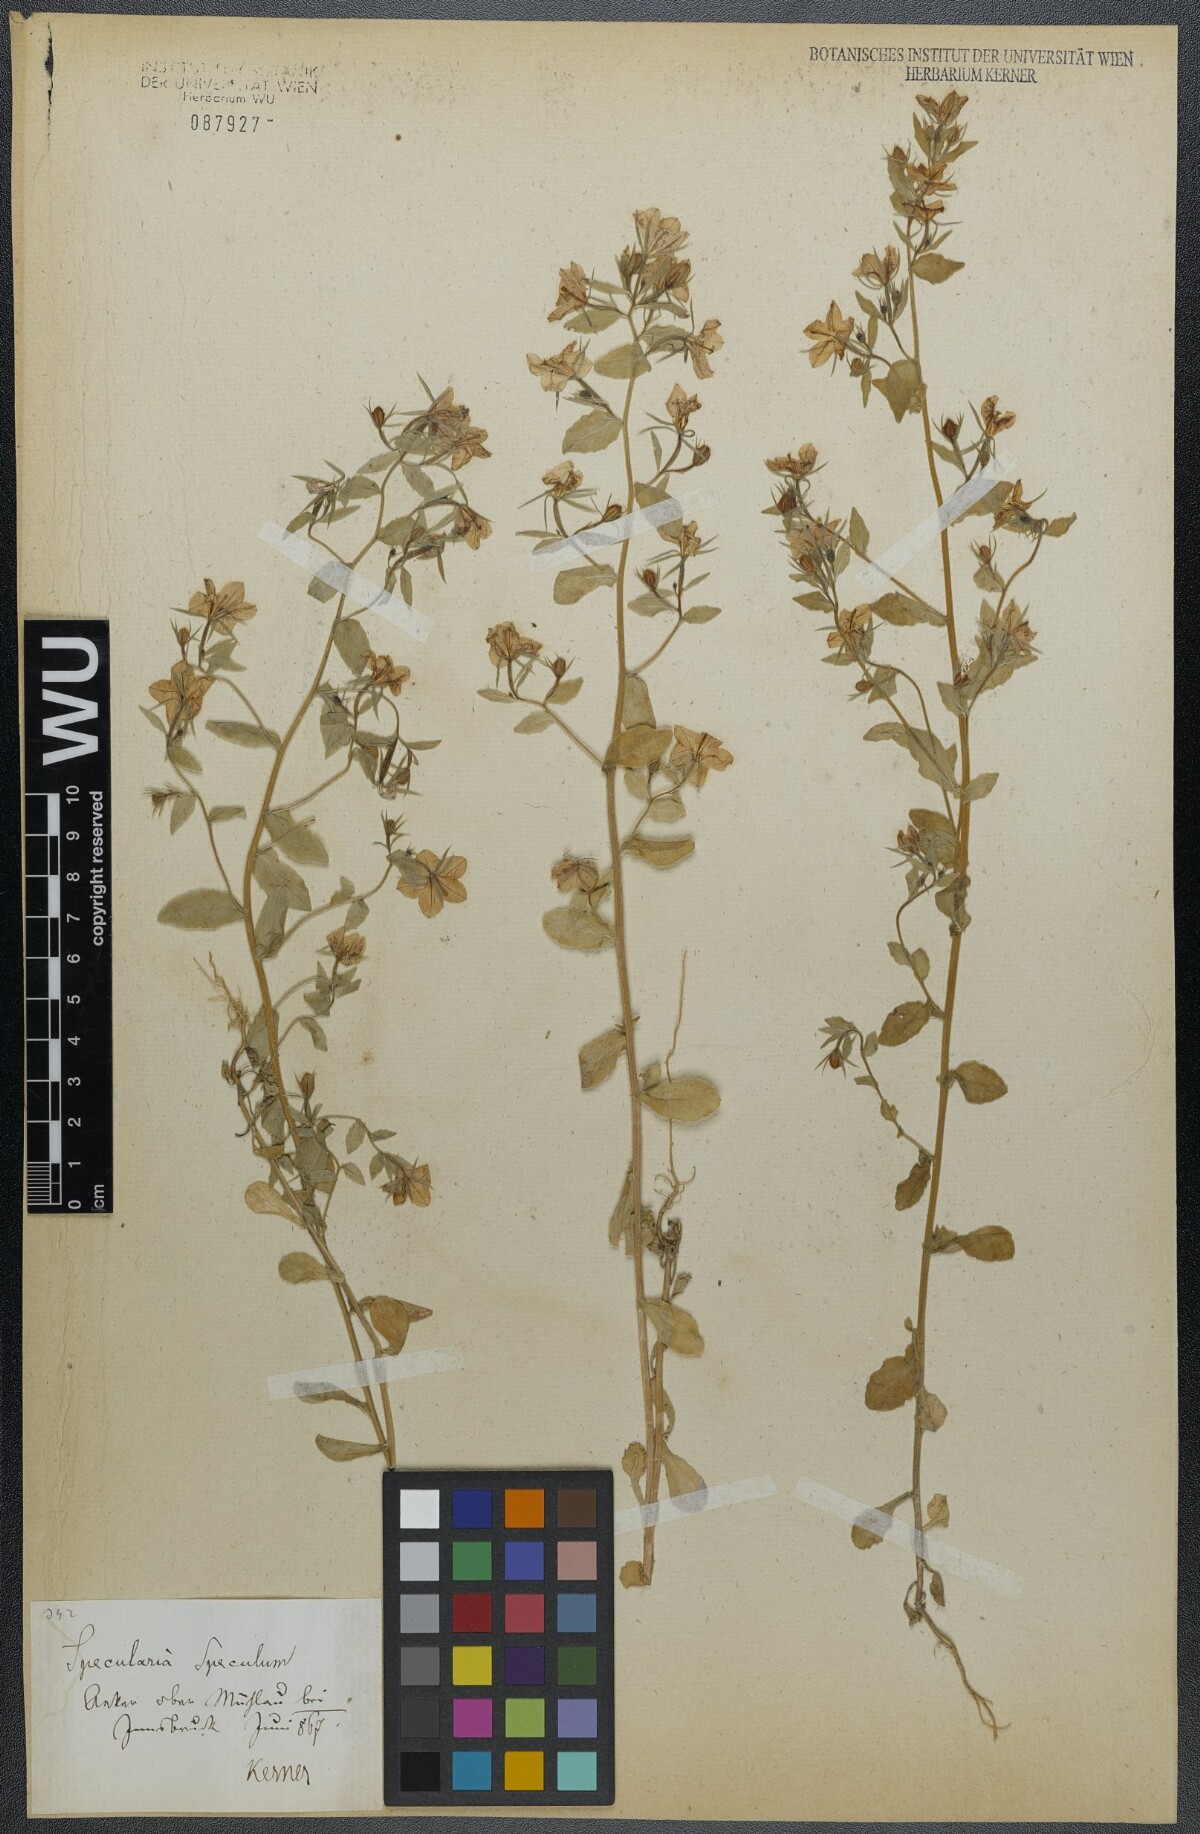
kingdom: Plantae
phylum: Tracheophyta
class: Magnoliopsida
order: Asterales
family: Campanulaceae
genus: Legousia
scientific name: Legousia speculum-veneris
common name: Large venus's-looking-glass
